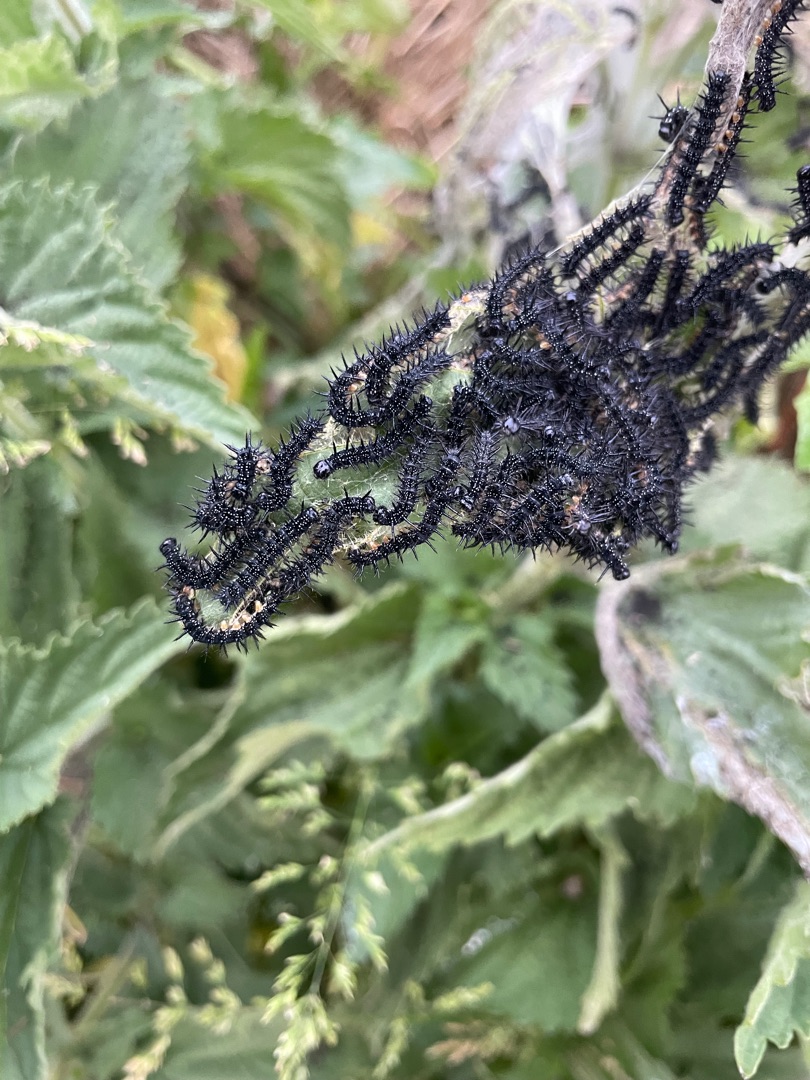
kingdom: Animalia
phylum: Arthropoda
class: Insecta
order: Lepidoptera
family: Nymphalidae
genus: Aglais
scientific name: Aglais io
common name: Dagpåfugleøje
